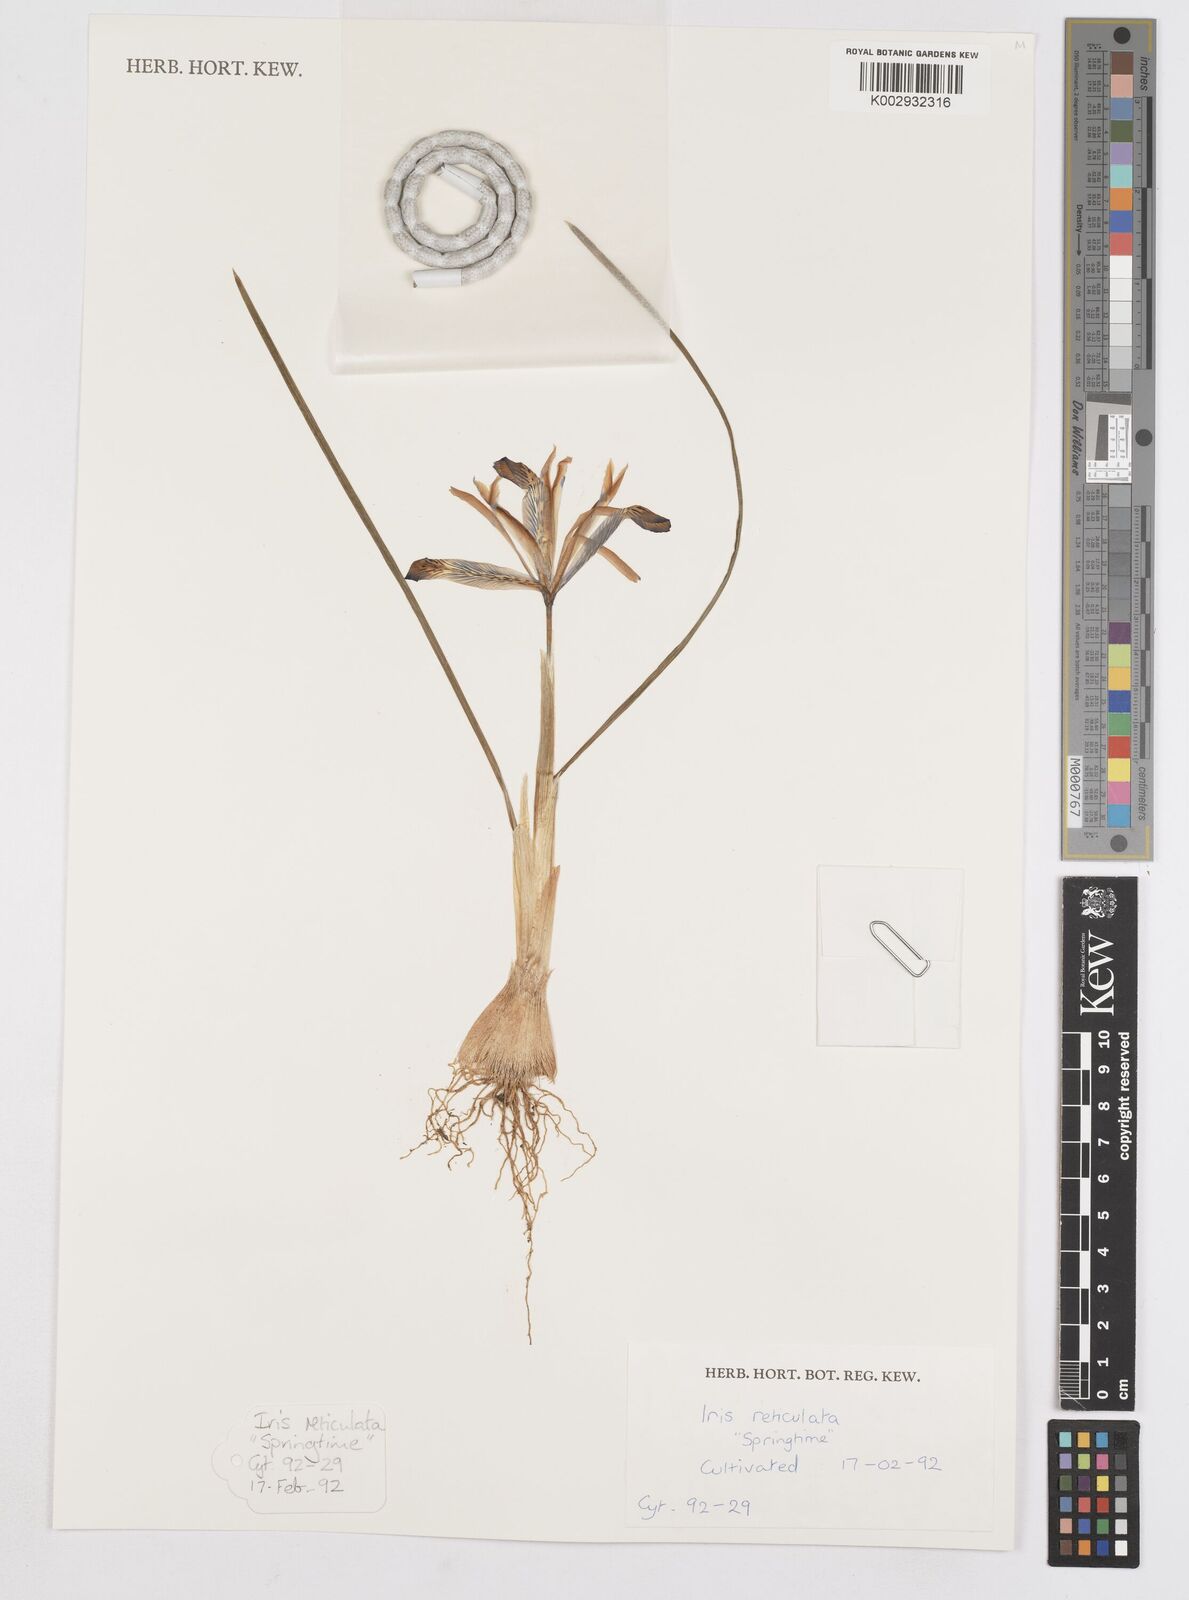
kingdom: Plantae
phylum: Tracheophyta
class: Liliopsida
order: Asparagales
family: Iridaceae
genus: Iris
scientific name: Iris reticulata
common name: Netted iris
